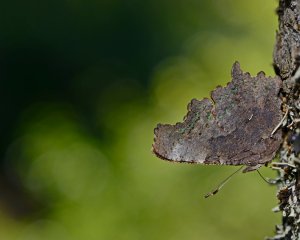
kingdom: Animalia
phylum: Arthropoda
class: Insecta
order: Lepidoptera
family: Nymphalidae
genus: Polygonia
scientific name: Polygonia faunus
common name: Green Comma
